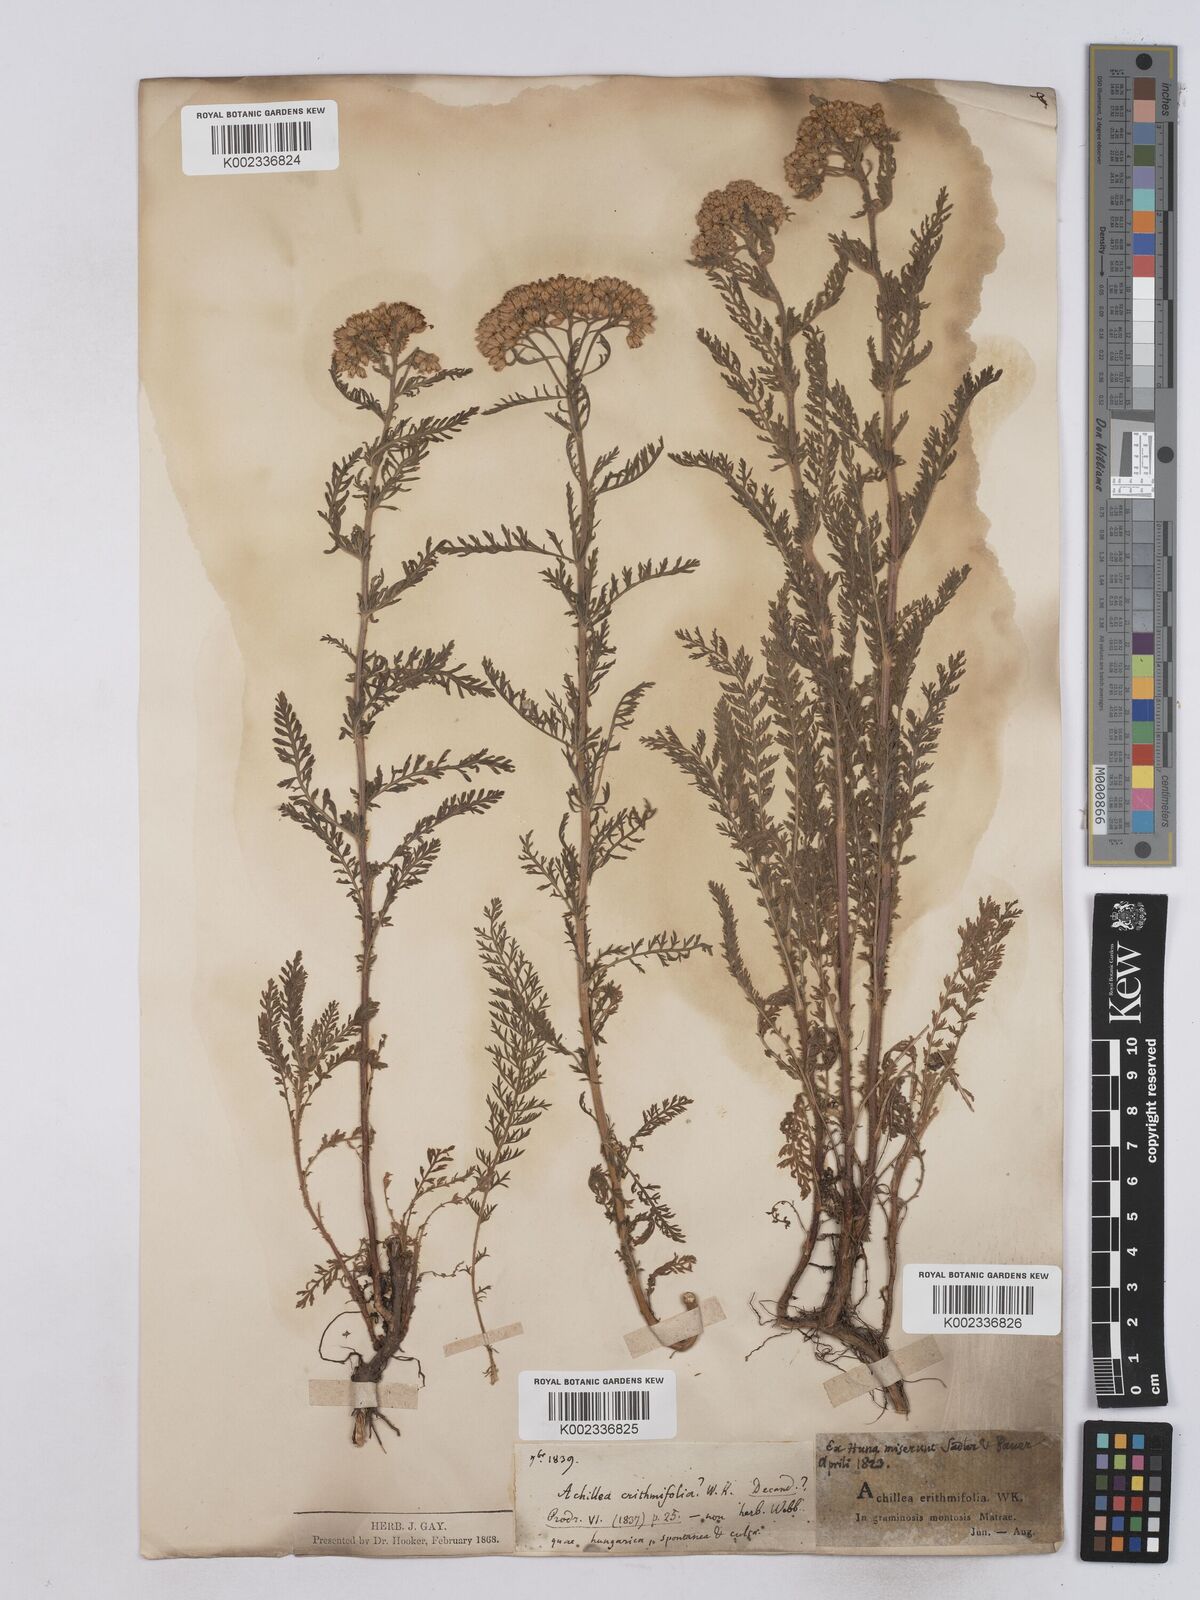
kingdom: Plantae
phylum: Tracheophyta
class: Magnoliopsida
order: Asterales
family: Asteraceae
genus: Achillea
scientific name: Achillea crithmifolia
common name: Yarrow
